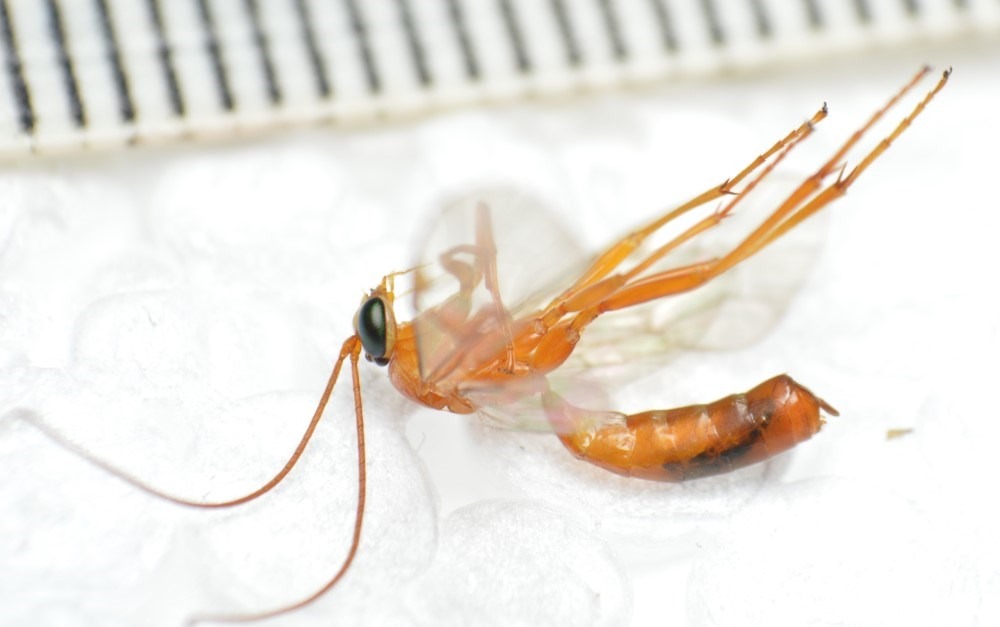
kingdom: Animalia
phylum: Arthropoda
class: Insecta
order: Hymenoptera
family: Ichneumonidae
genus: Netelia
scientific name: Netelia cristata
